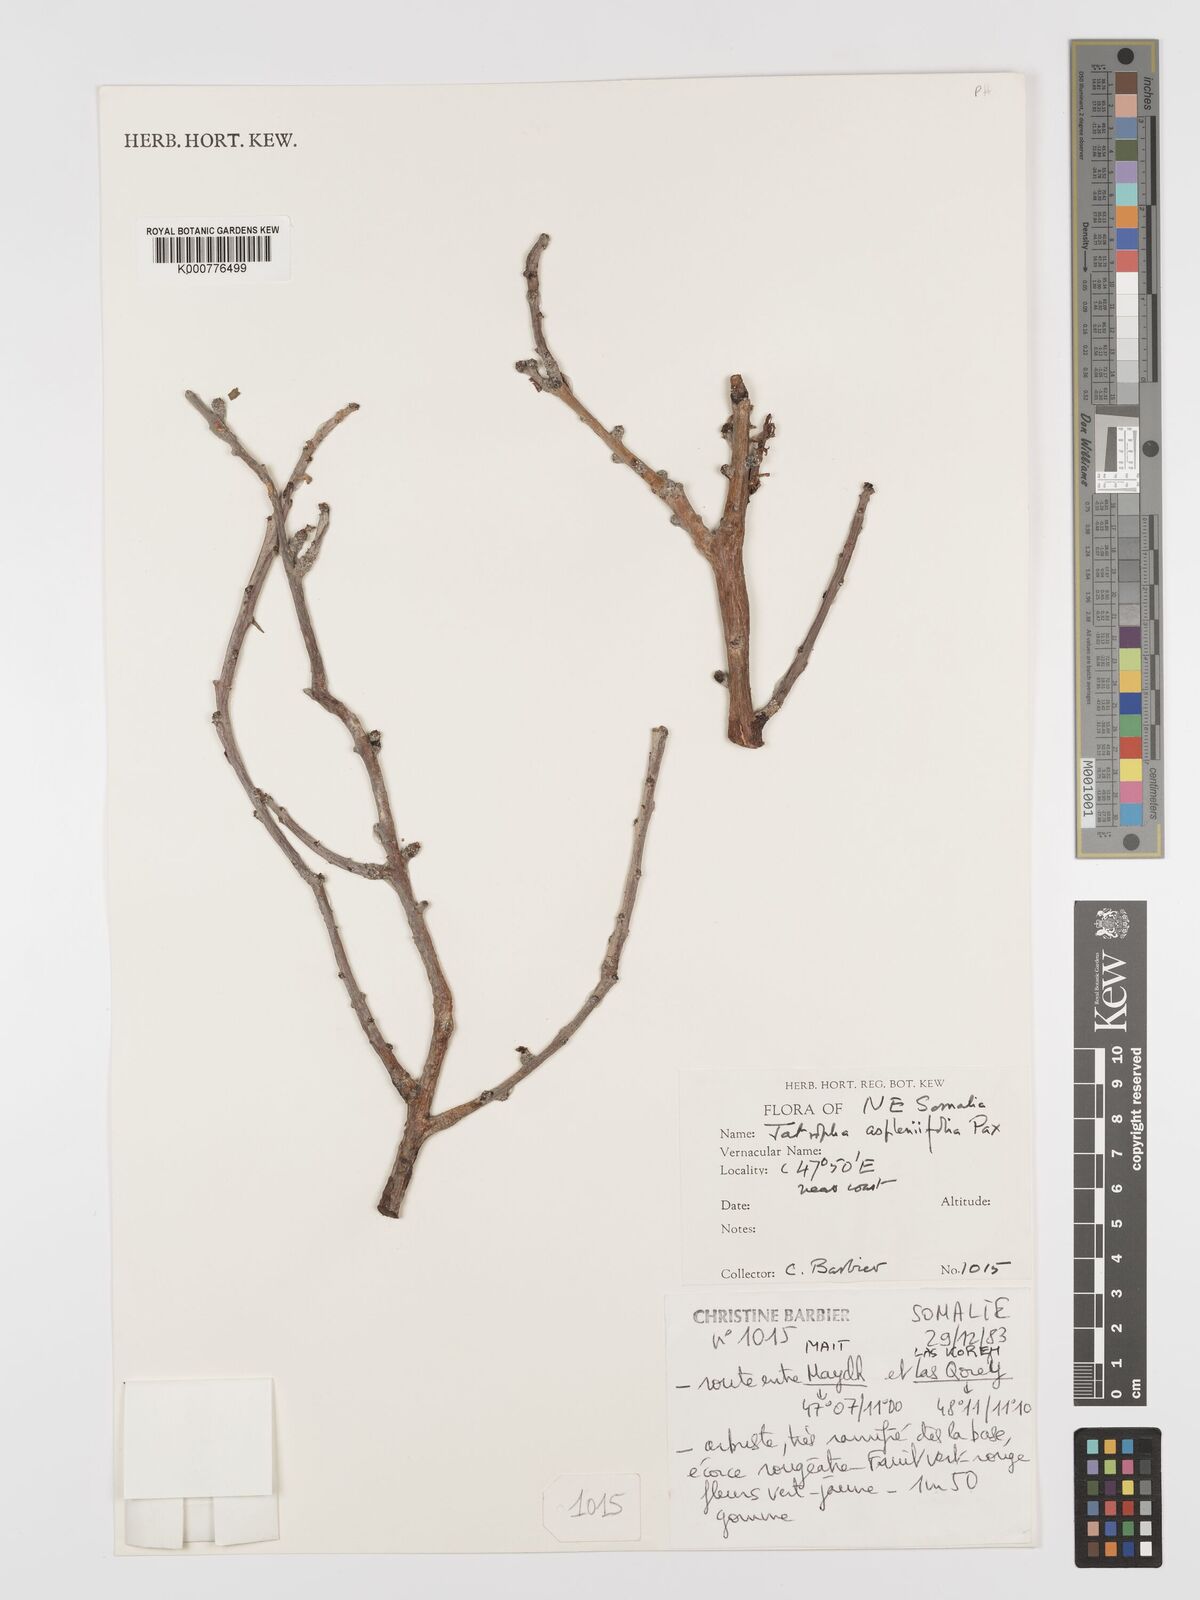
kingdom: Plantae
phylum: Tracheophyta
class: Magnoliopsida
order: Malpighiales
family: Euphorbiaceae
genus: Jatropha
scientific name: Jatropha aspleniifolia
